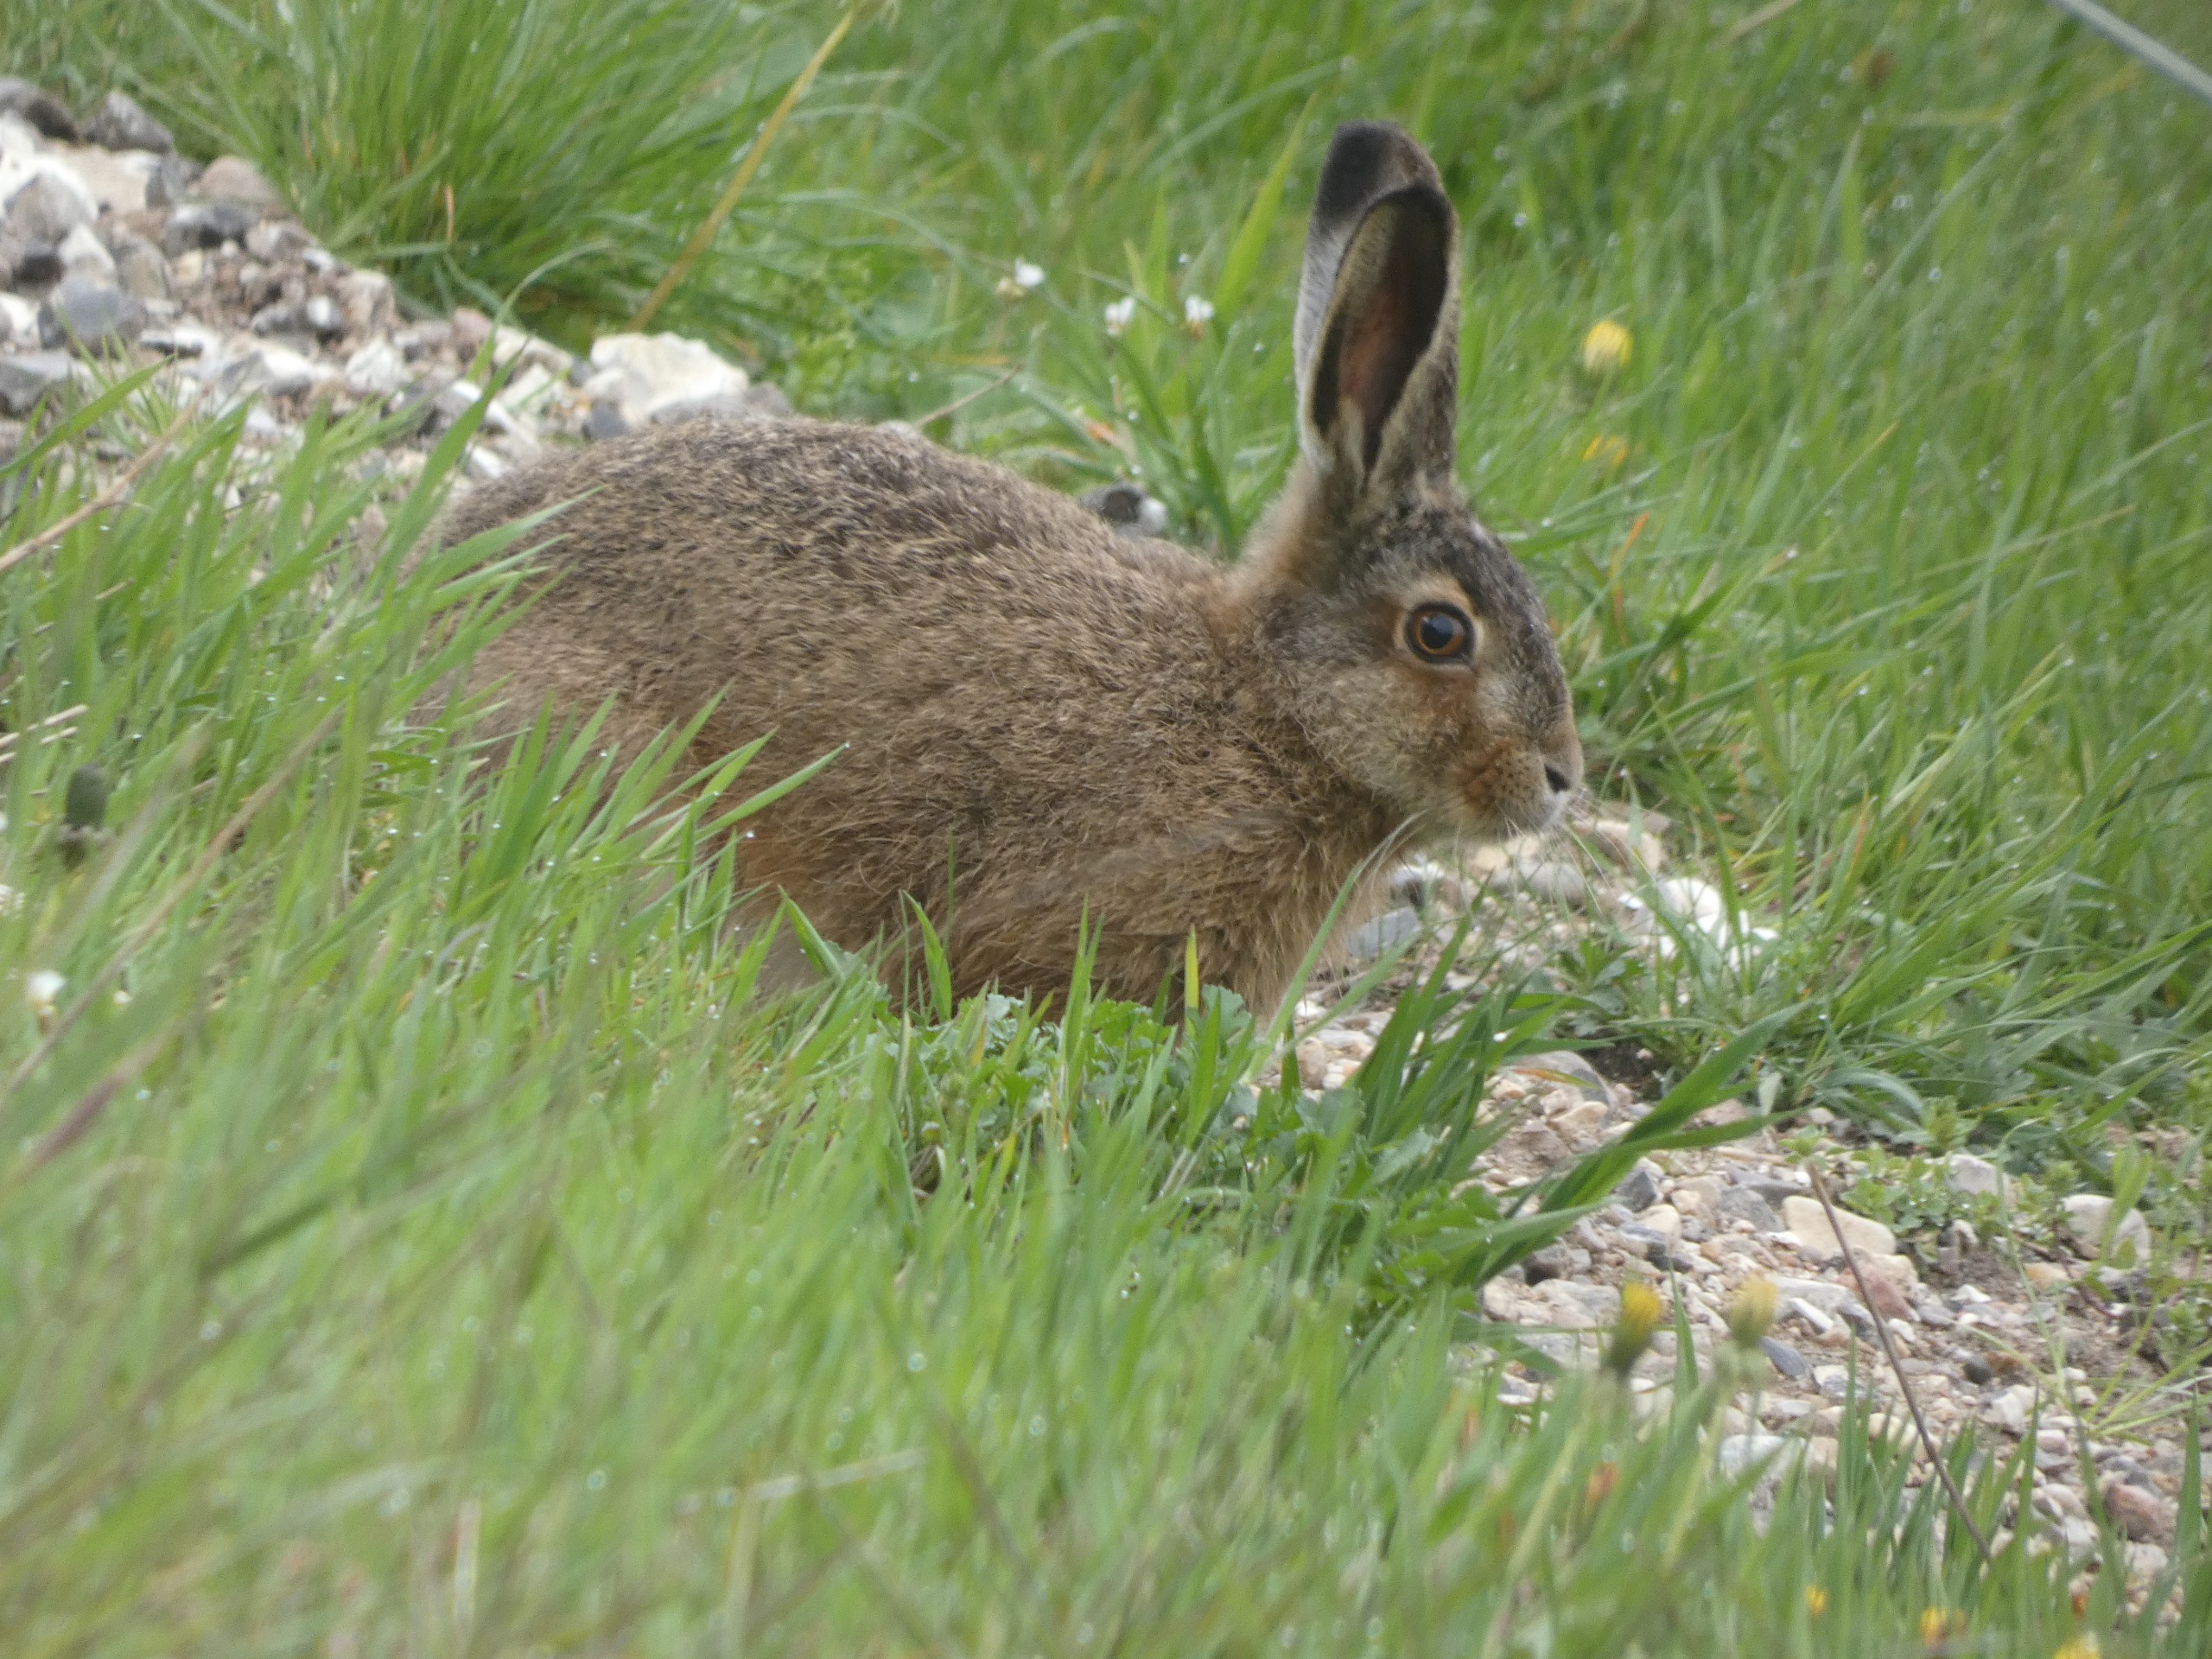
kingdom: Animalia
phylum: Chordata
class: Mammalia
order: Lagomorpha
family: Leporidae
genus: Lepus
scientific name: Lepus europaeus
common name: Hare
